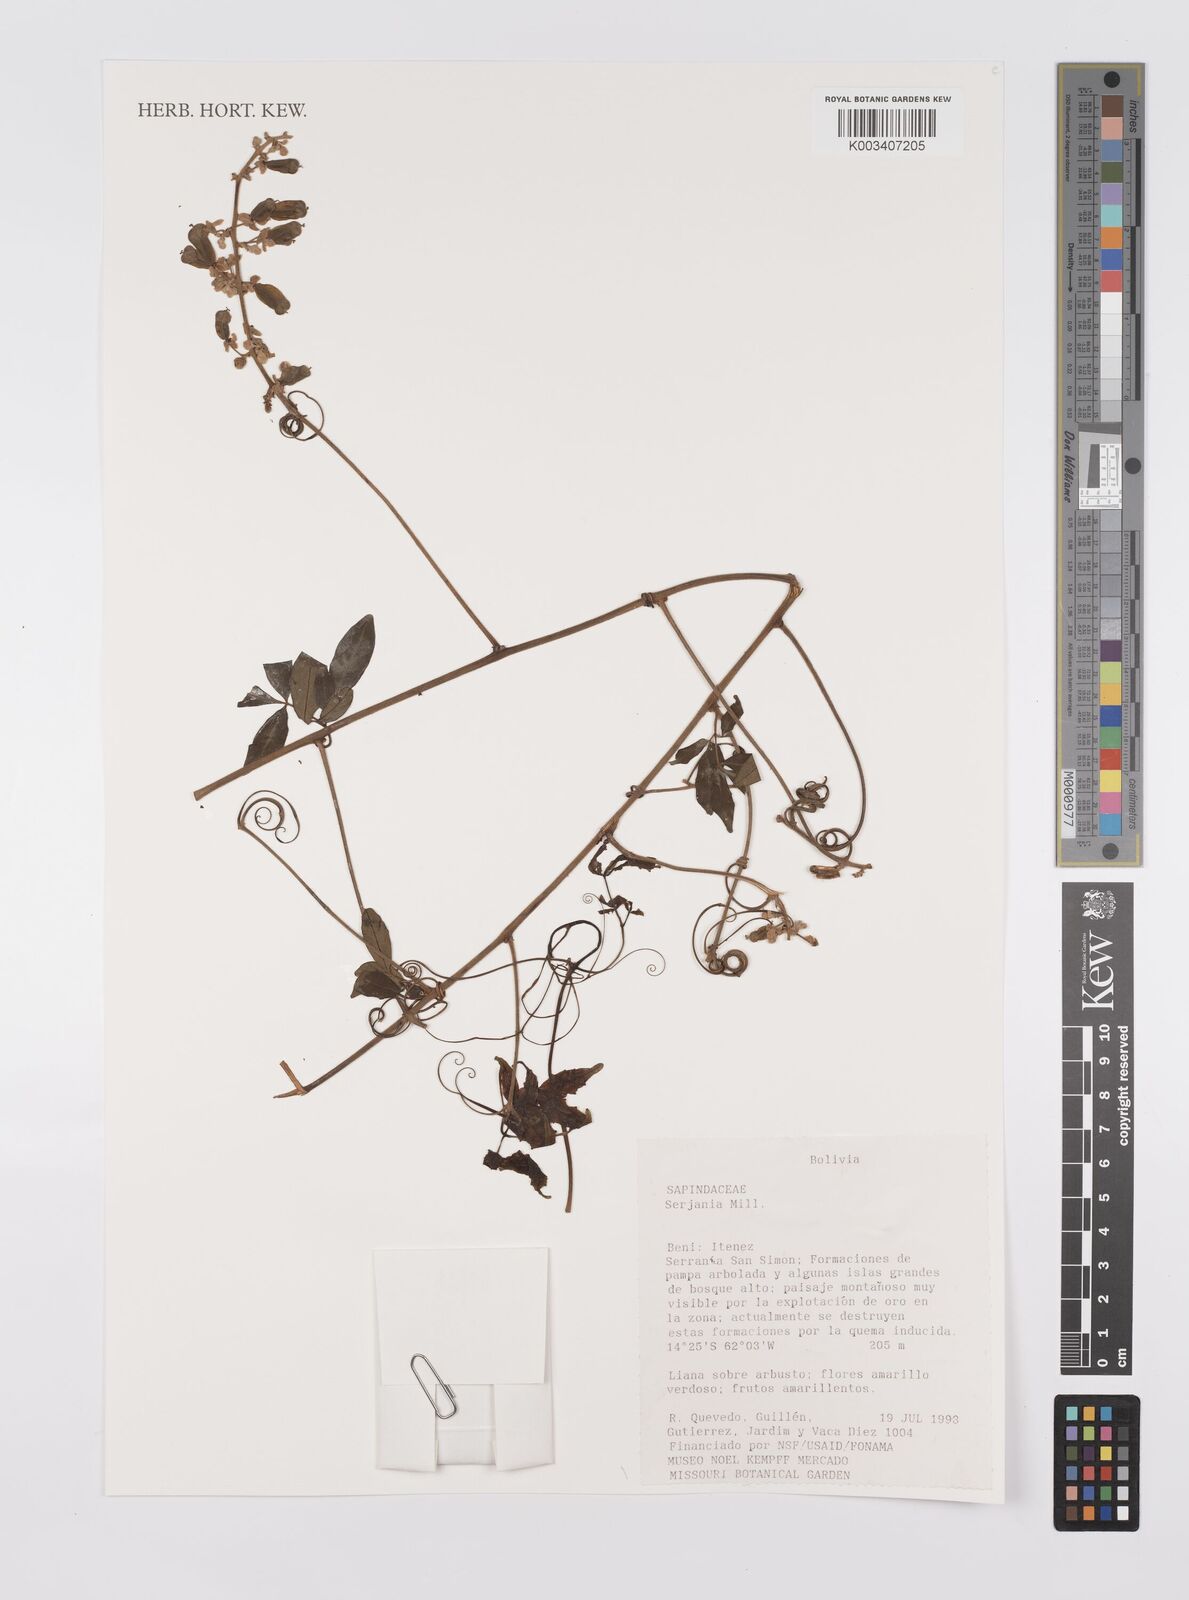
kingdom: Plantae
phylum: Tracheophyta
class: Magnoliopsida
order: Sapindales
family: Sapindaceae
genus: Serjania
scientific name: Serjania
